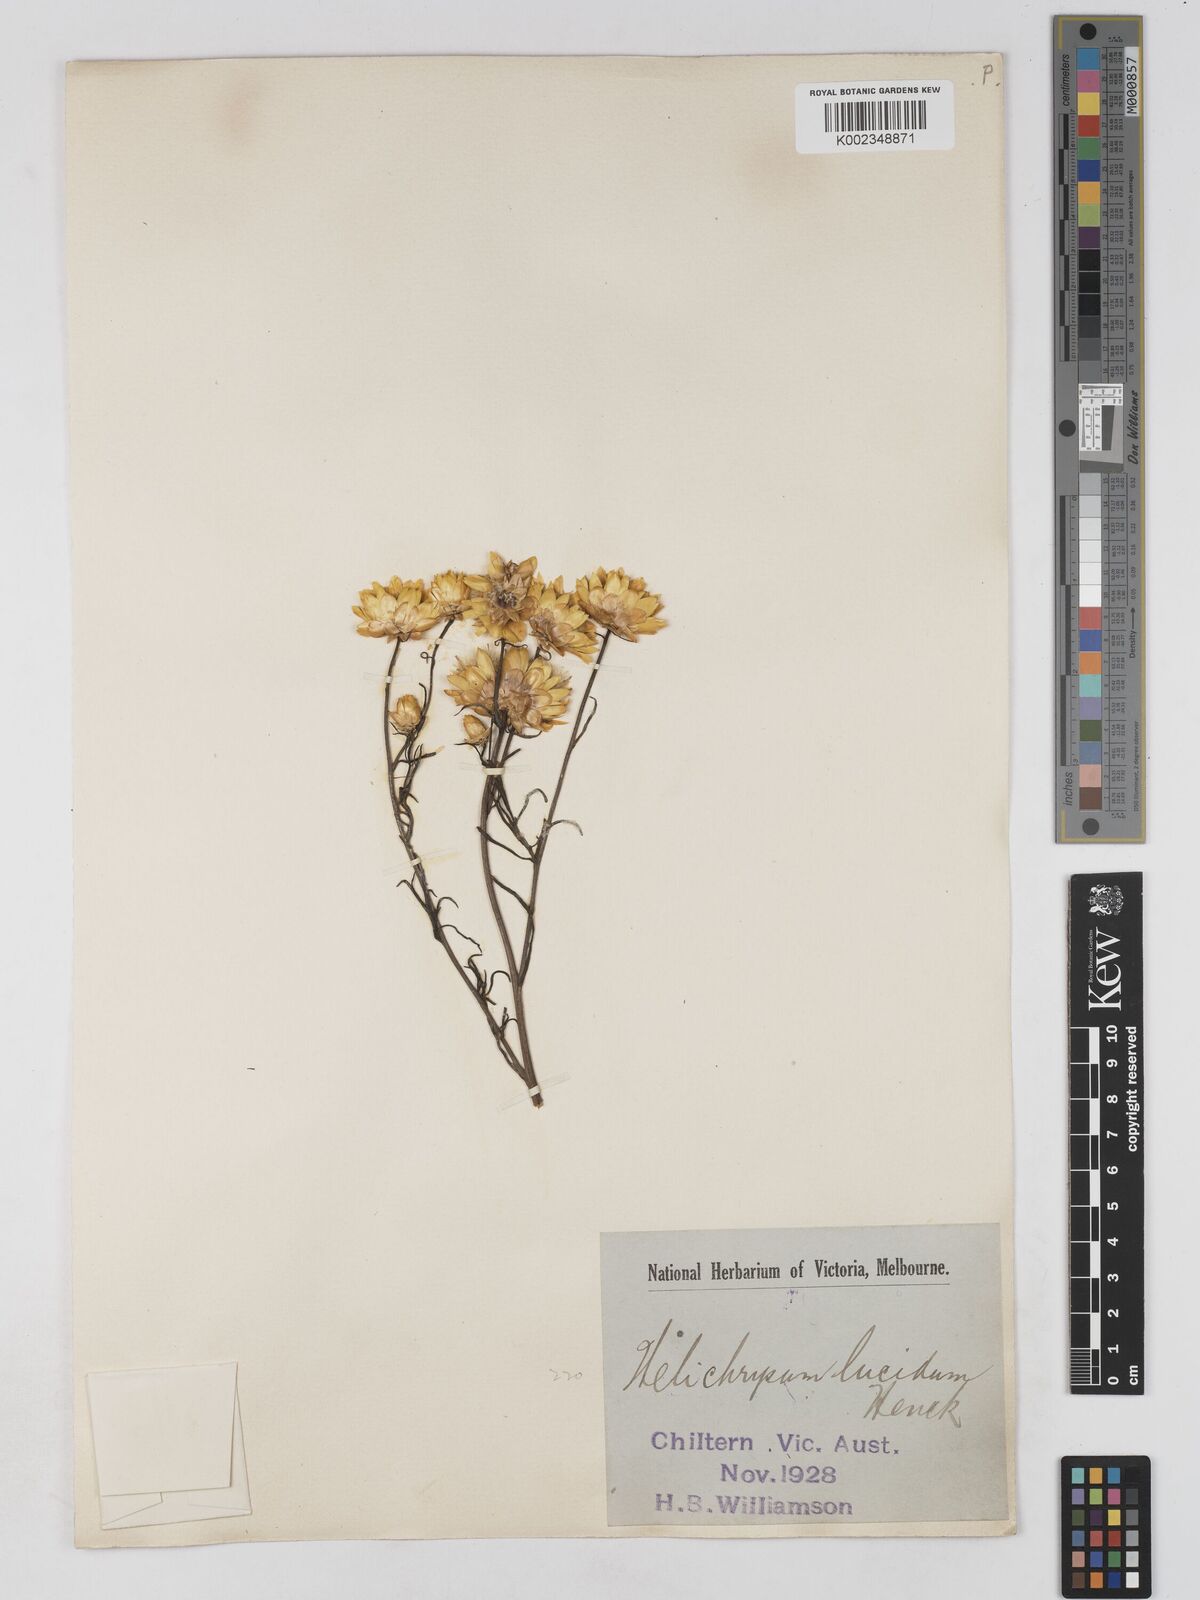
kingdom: Plantae
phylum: Tracheophyta
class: Magnoliopsida
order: Asterales
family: Asteraceae
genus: Xerochrysum
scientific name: Xerochrysum bracteatum
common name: Bracted strawflower
